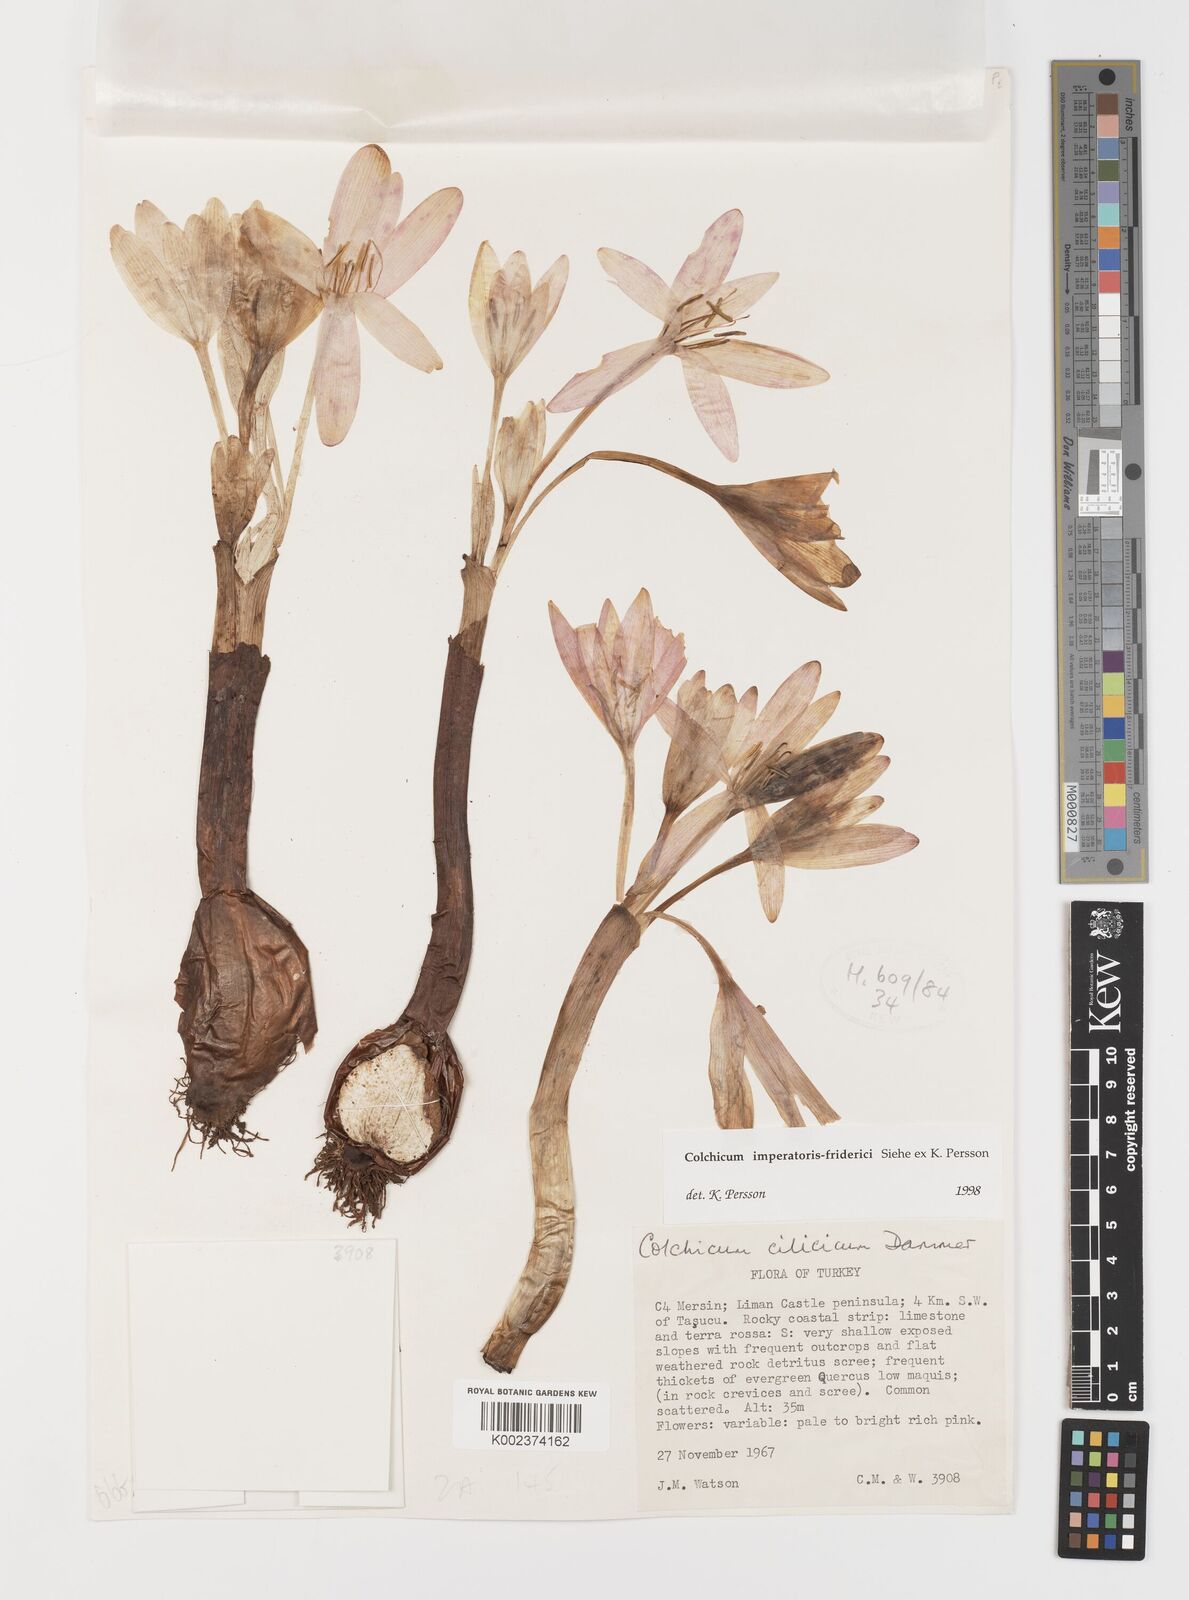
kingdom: Plantae
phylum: Tracheophyta
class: Liliopsida
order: Liliales
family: Colchicaceae
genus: Colchicum
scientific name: Colchicum imperatoris-friderici
